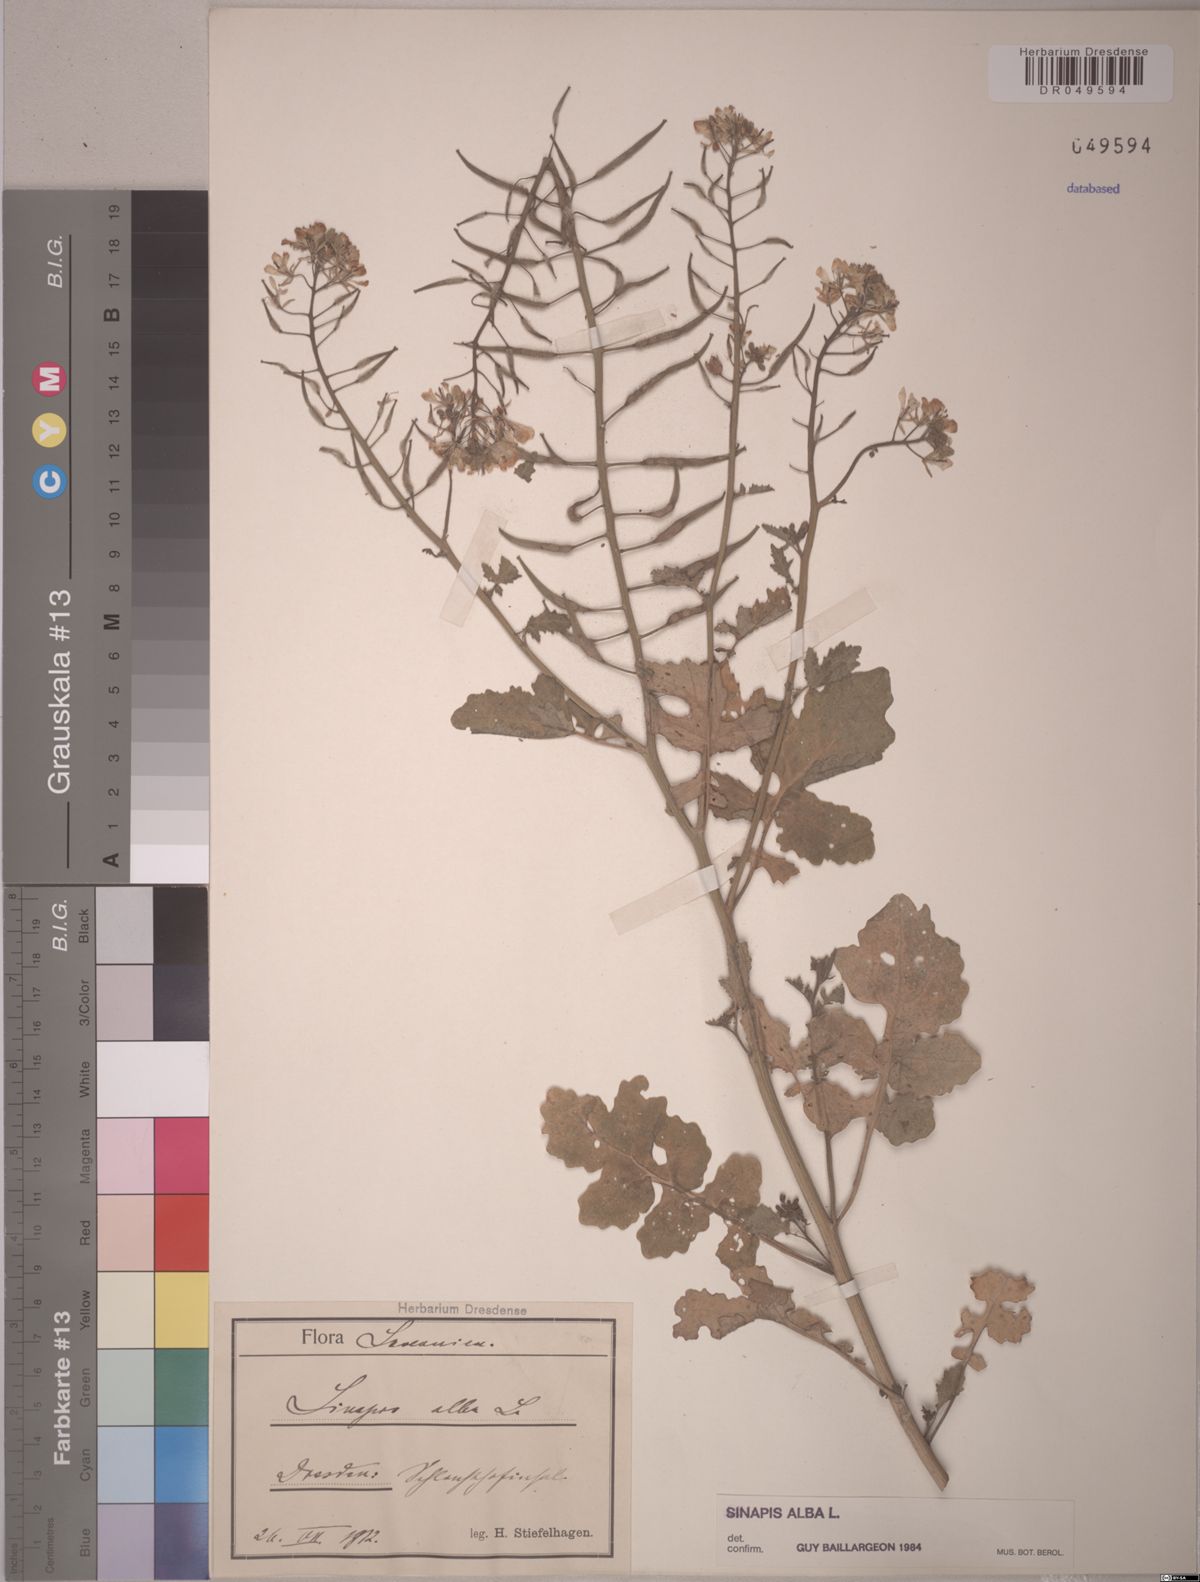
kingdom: Plantae
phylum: Tracheophyta
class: Magnoliopsida
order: Brassicales
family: Brassicaceae
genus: Sinapis
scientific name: Sinapis alba
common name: White mustard
